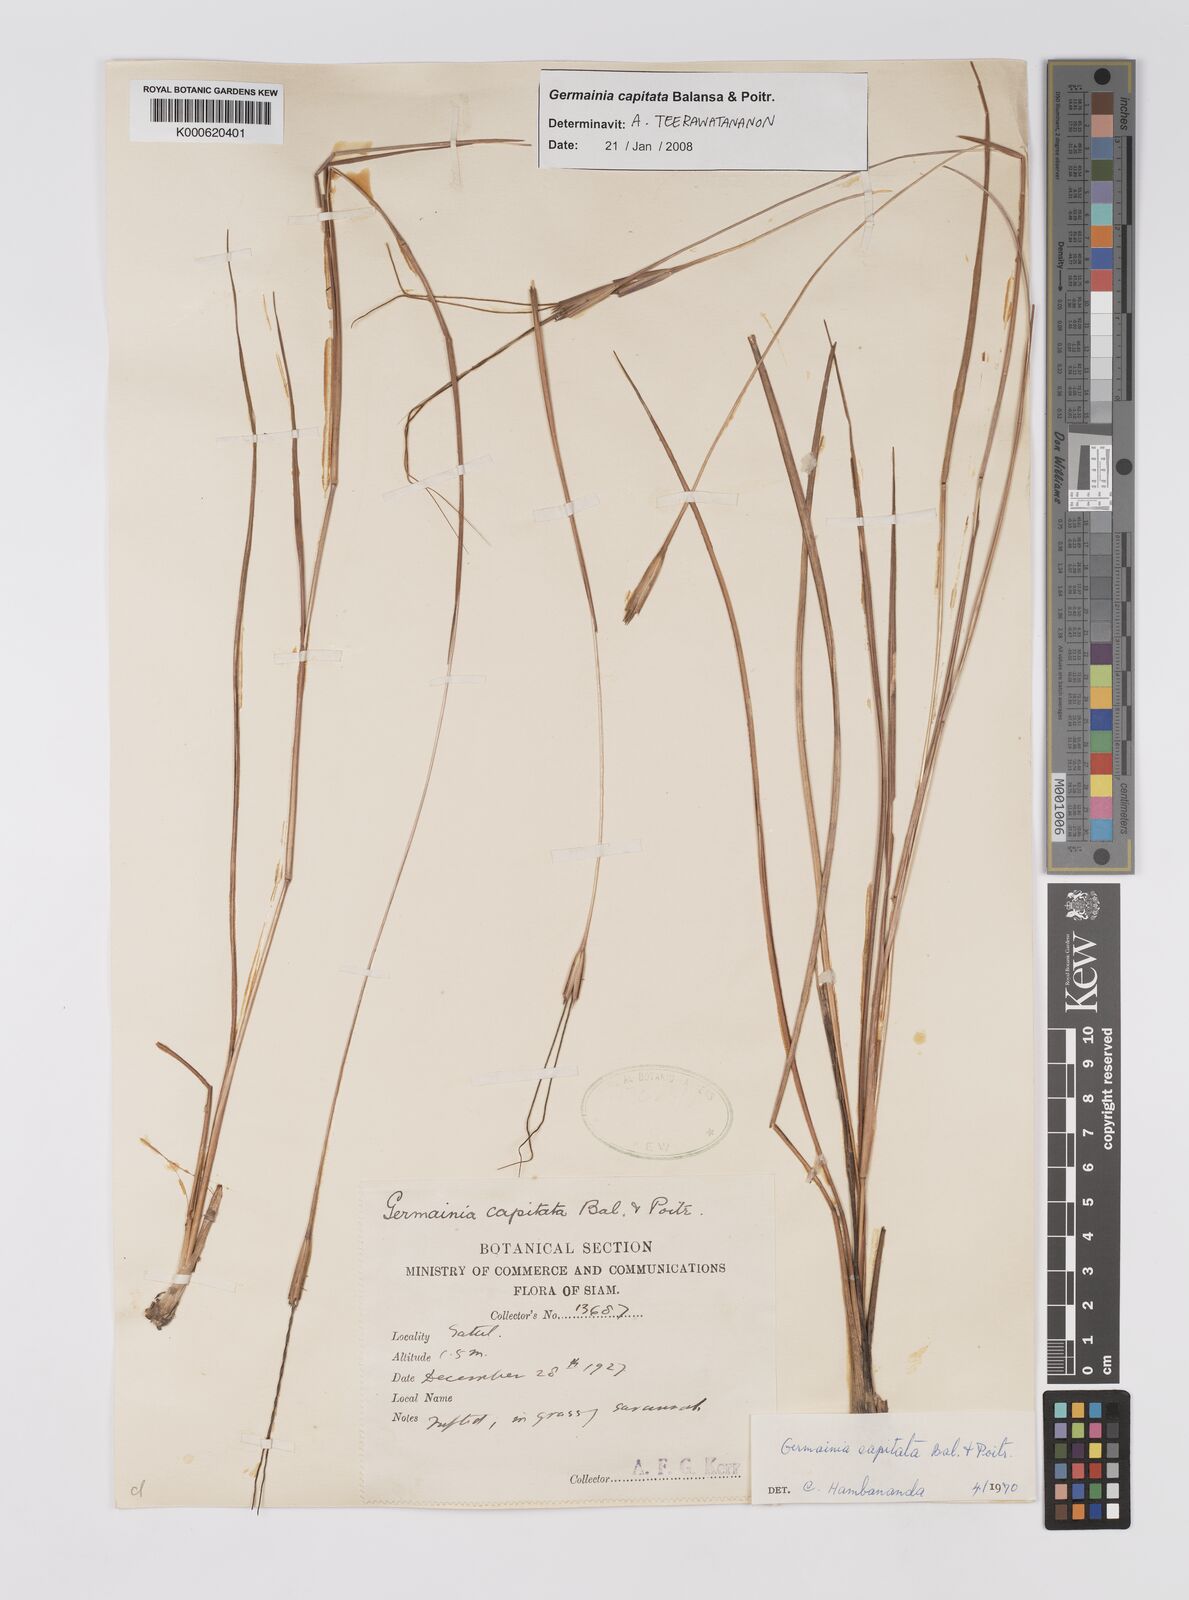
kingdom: Plantae
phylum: Tracheophyta
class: Liliopsida
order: Poales
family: Poaceae
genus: Germainia
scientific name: Germainia capitata
